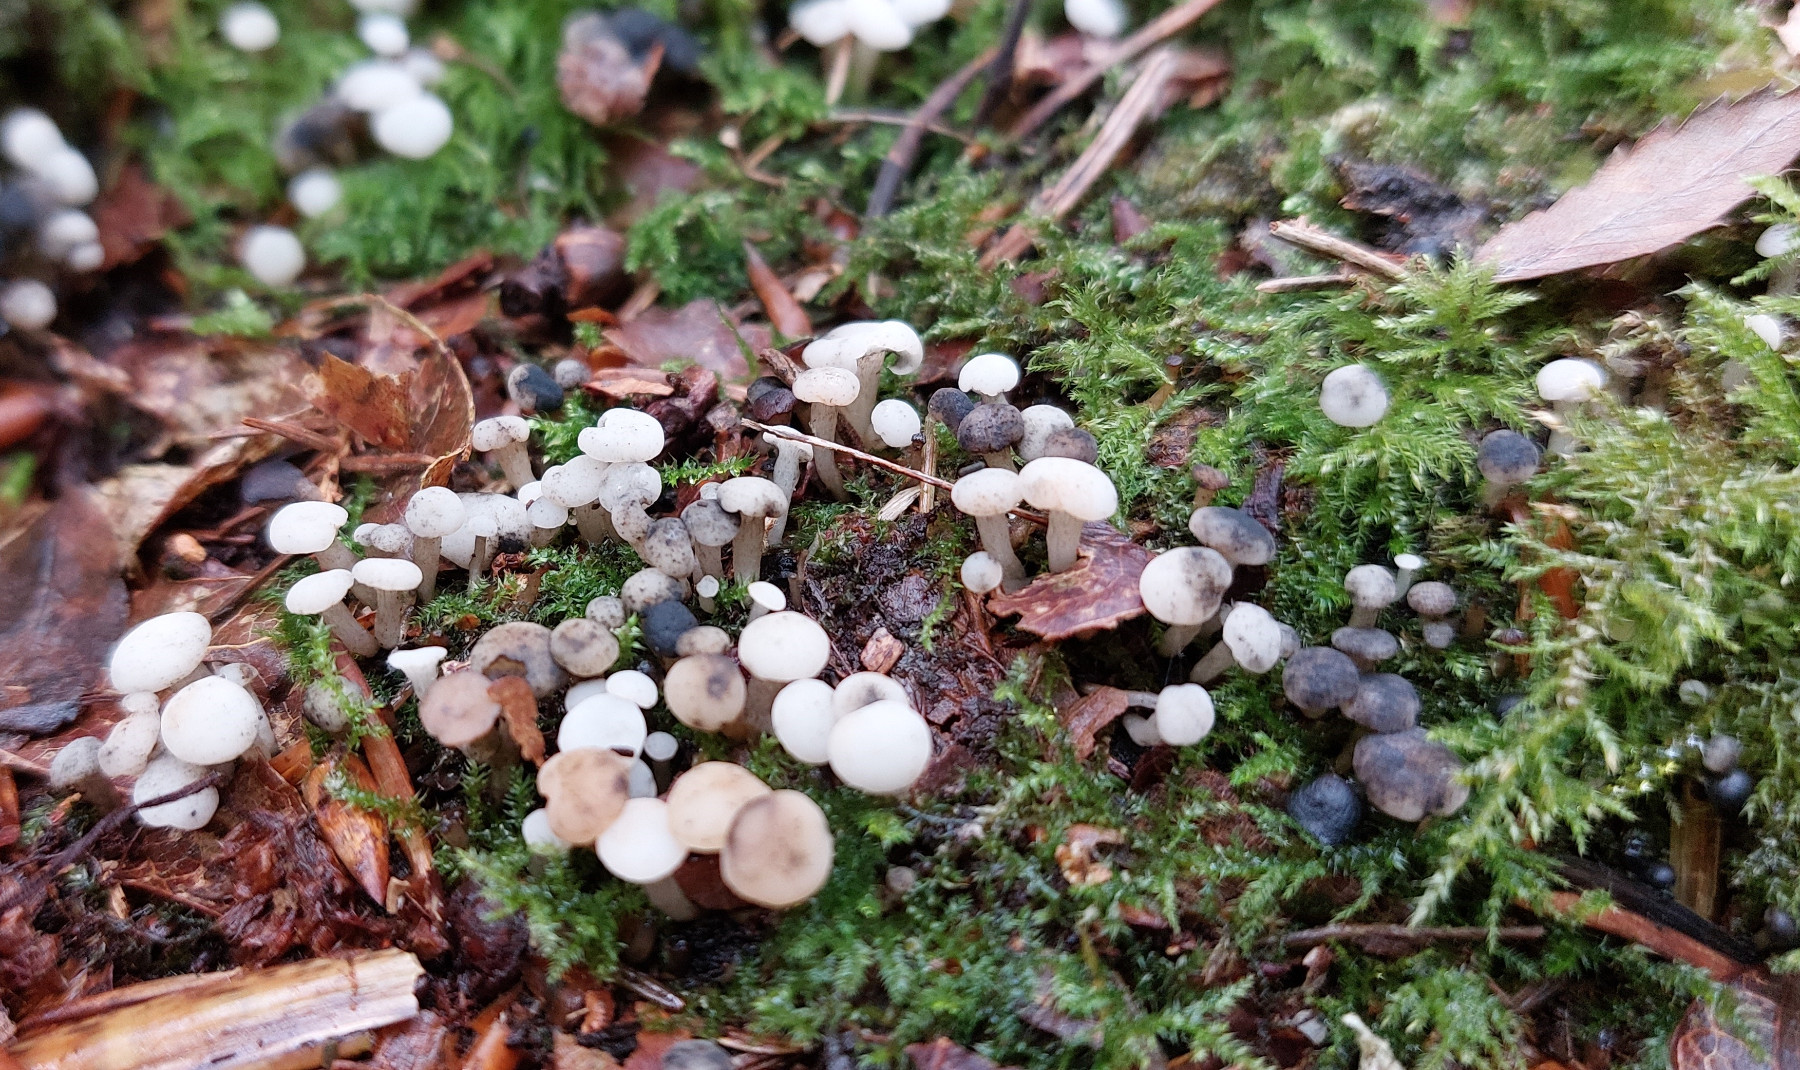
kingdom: Fungi
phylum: Ascomycota
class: Leotiomycetes
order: Helotiales
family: Tricladiaceae
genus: Cudoniella
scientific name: Cudoniella acicularis
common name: ege-dyndskive
